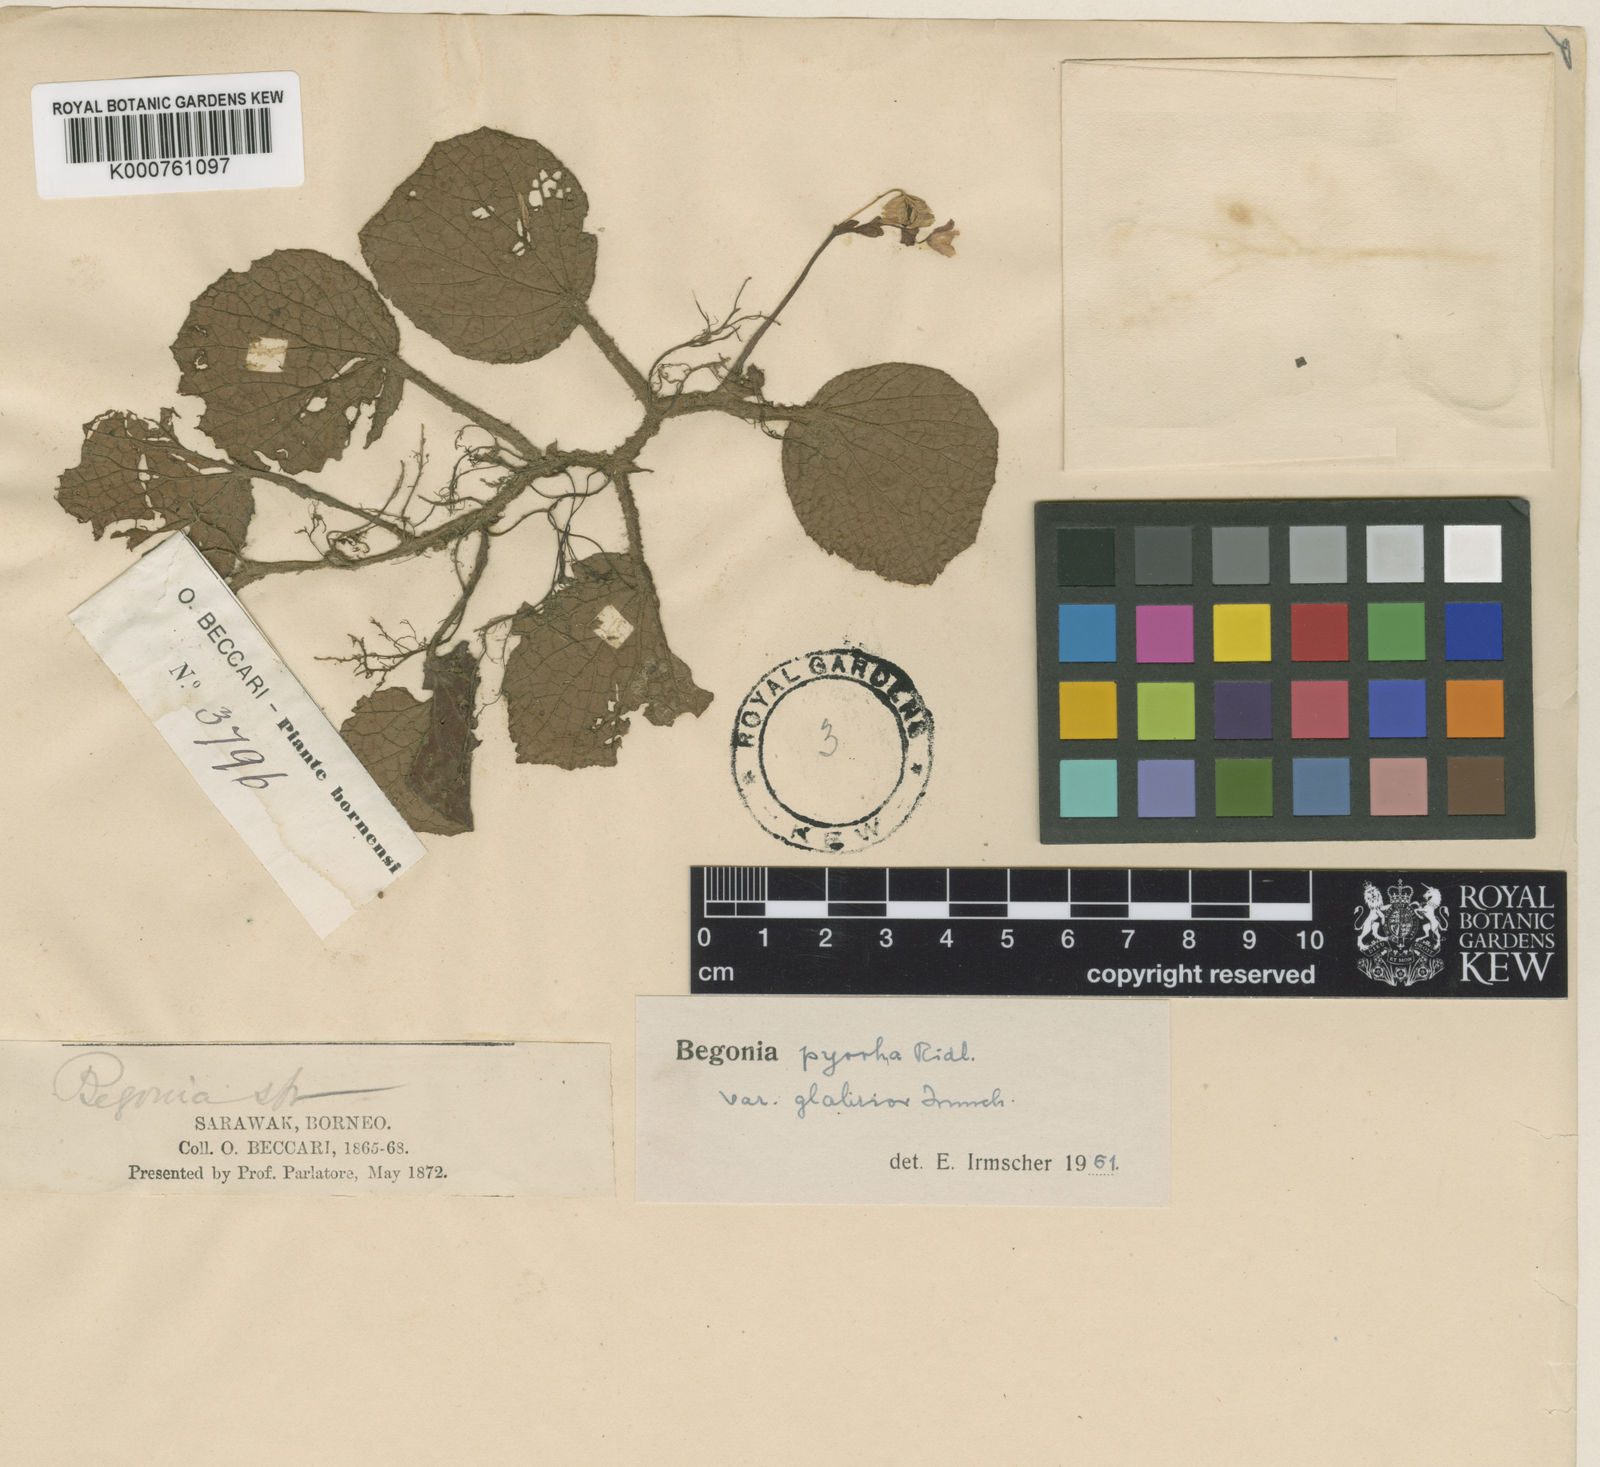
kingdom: Plantae
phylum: Tracheophyta
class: Magnoliopsida
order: Cucurbitales
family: Begoniaceae
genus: Begonia
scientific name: Begonia pyrrha
